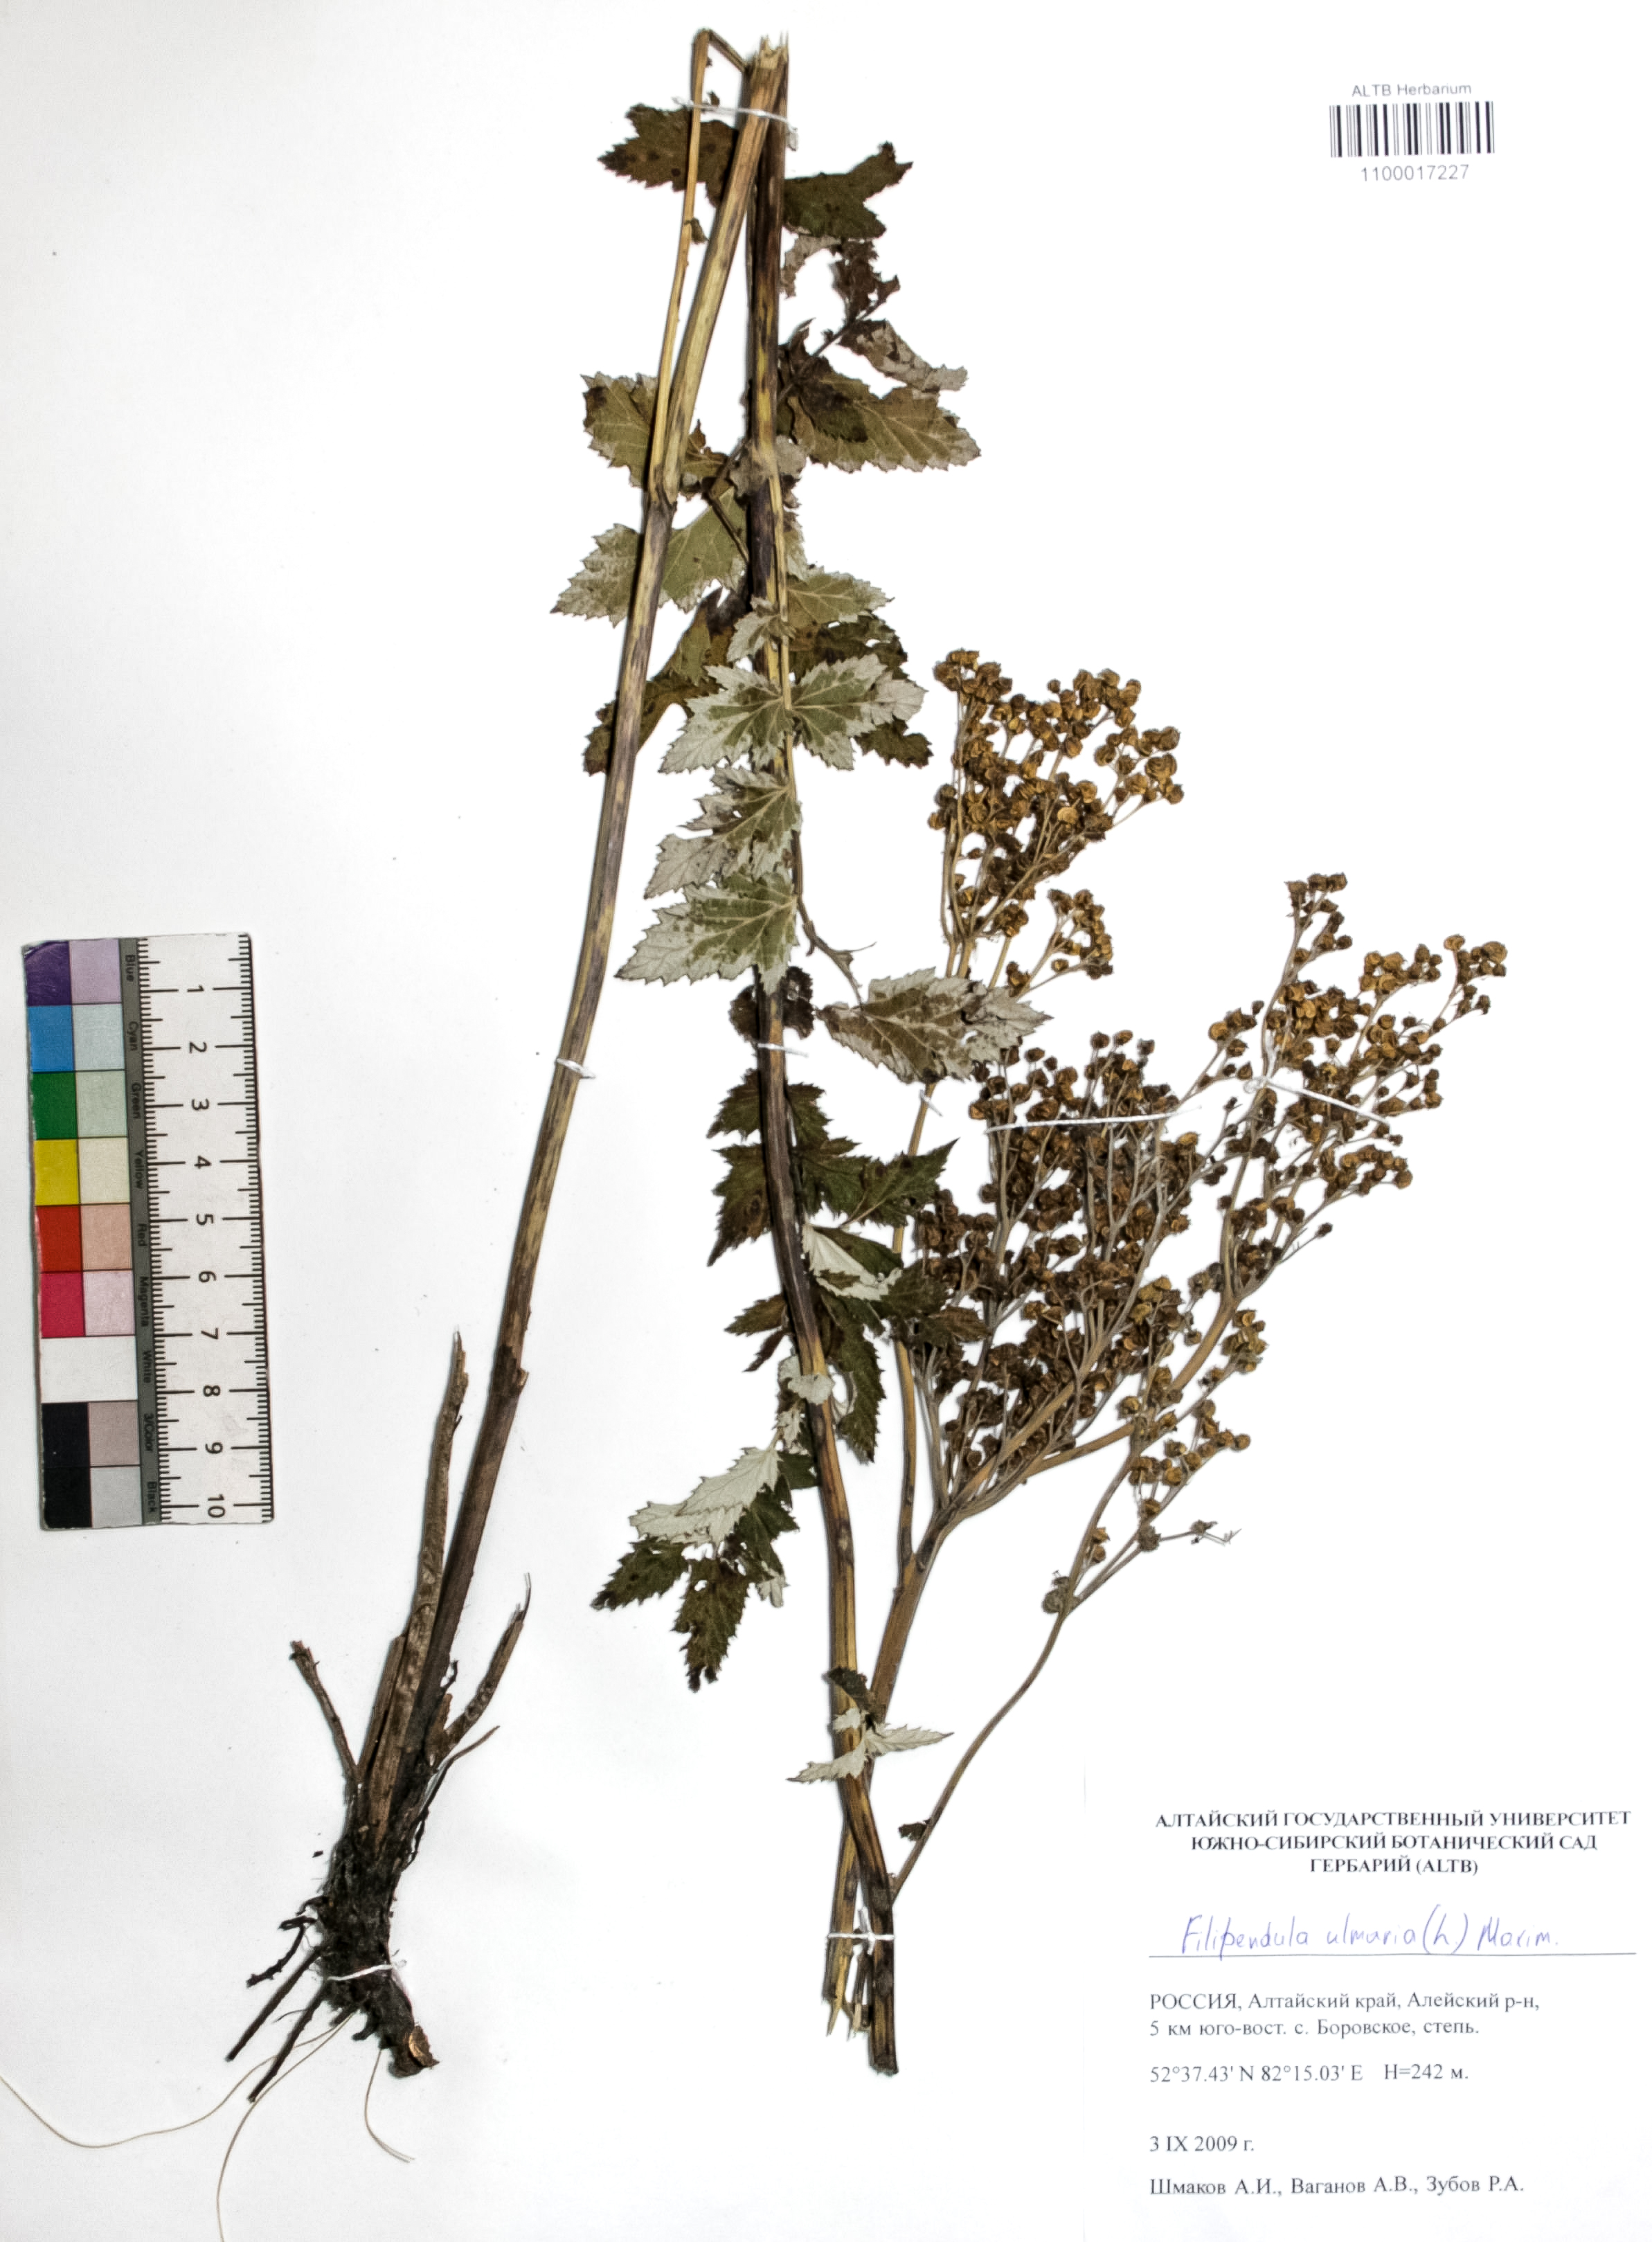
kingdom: Plantae
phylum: Tracheophyta
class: Magnoliopsida
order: Rosales
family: Rosaceae
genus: Filipendula
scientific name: Filipendula ulmaria
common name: Meadowsweet
